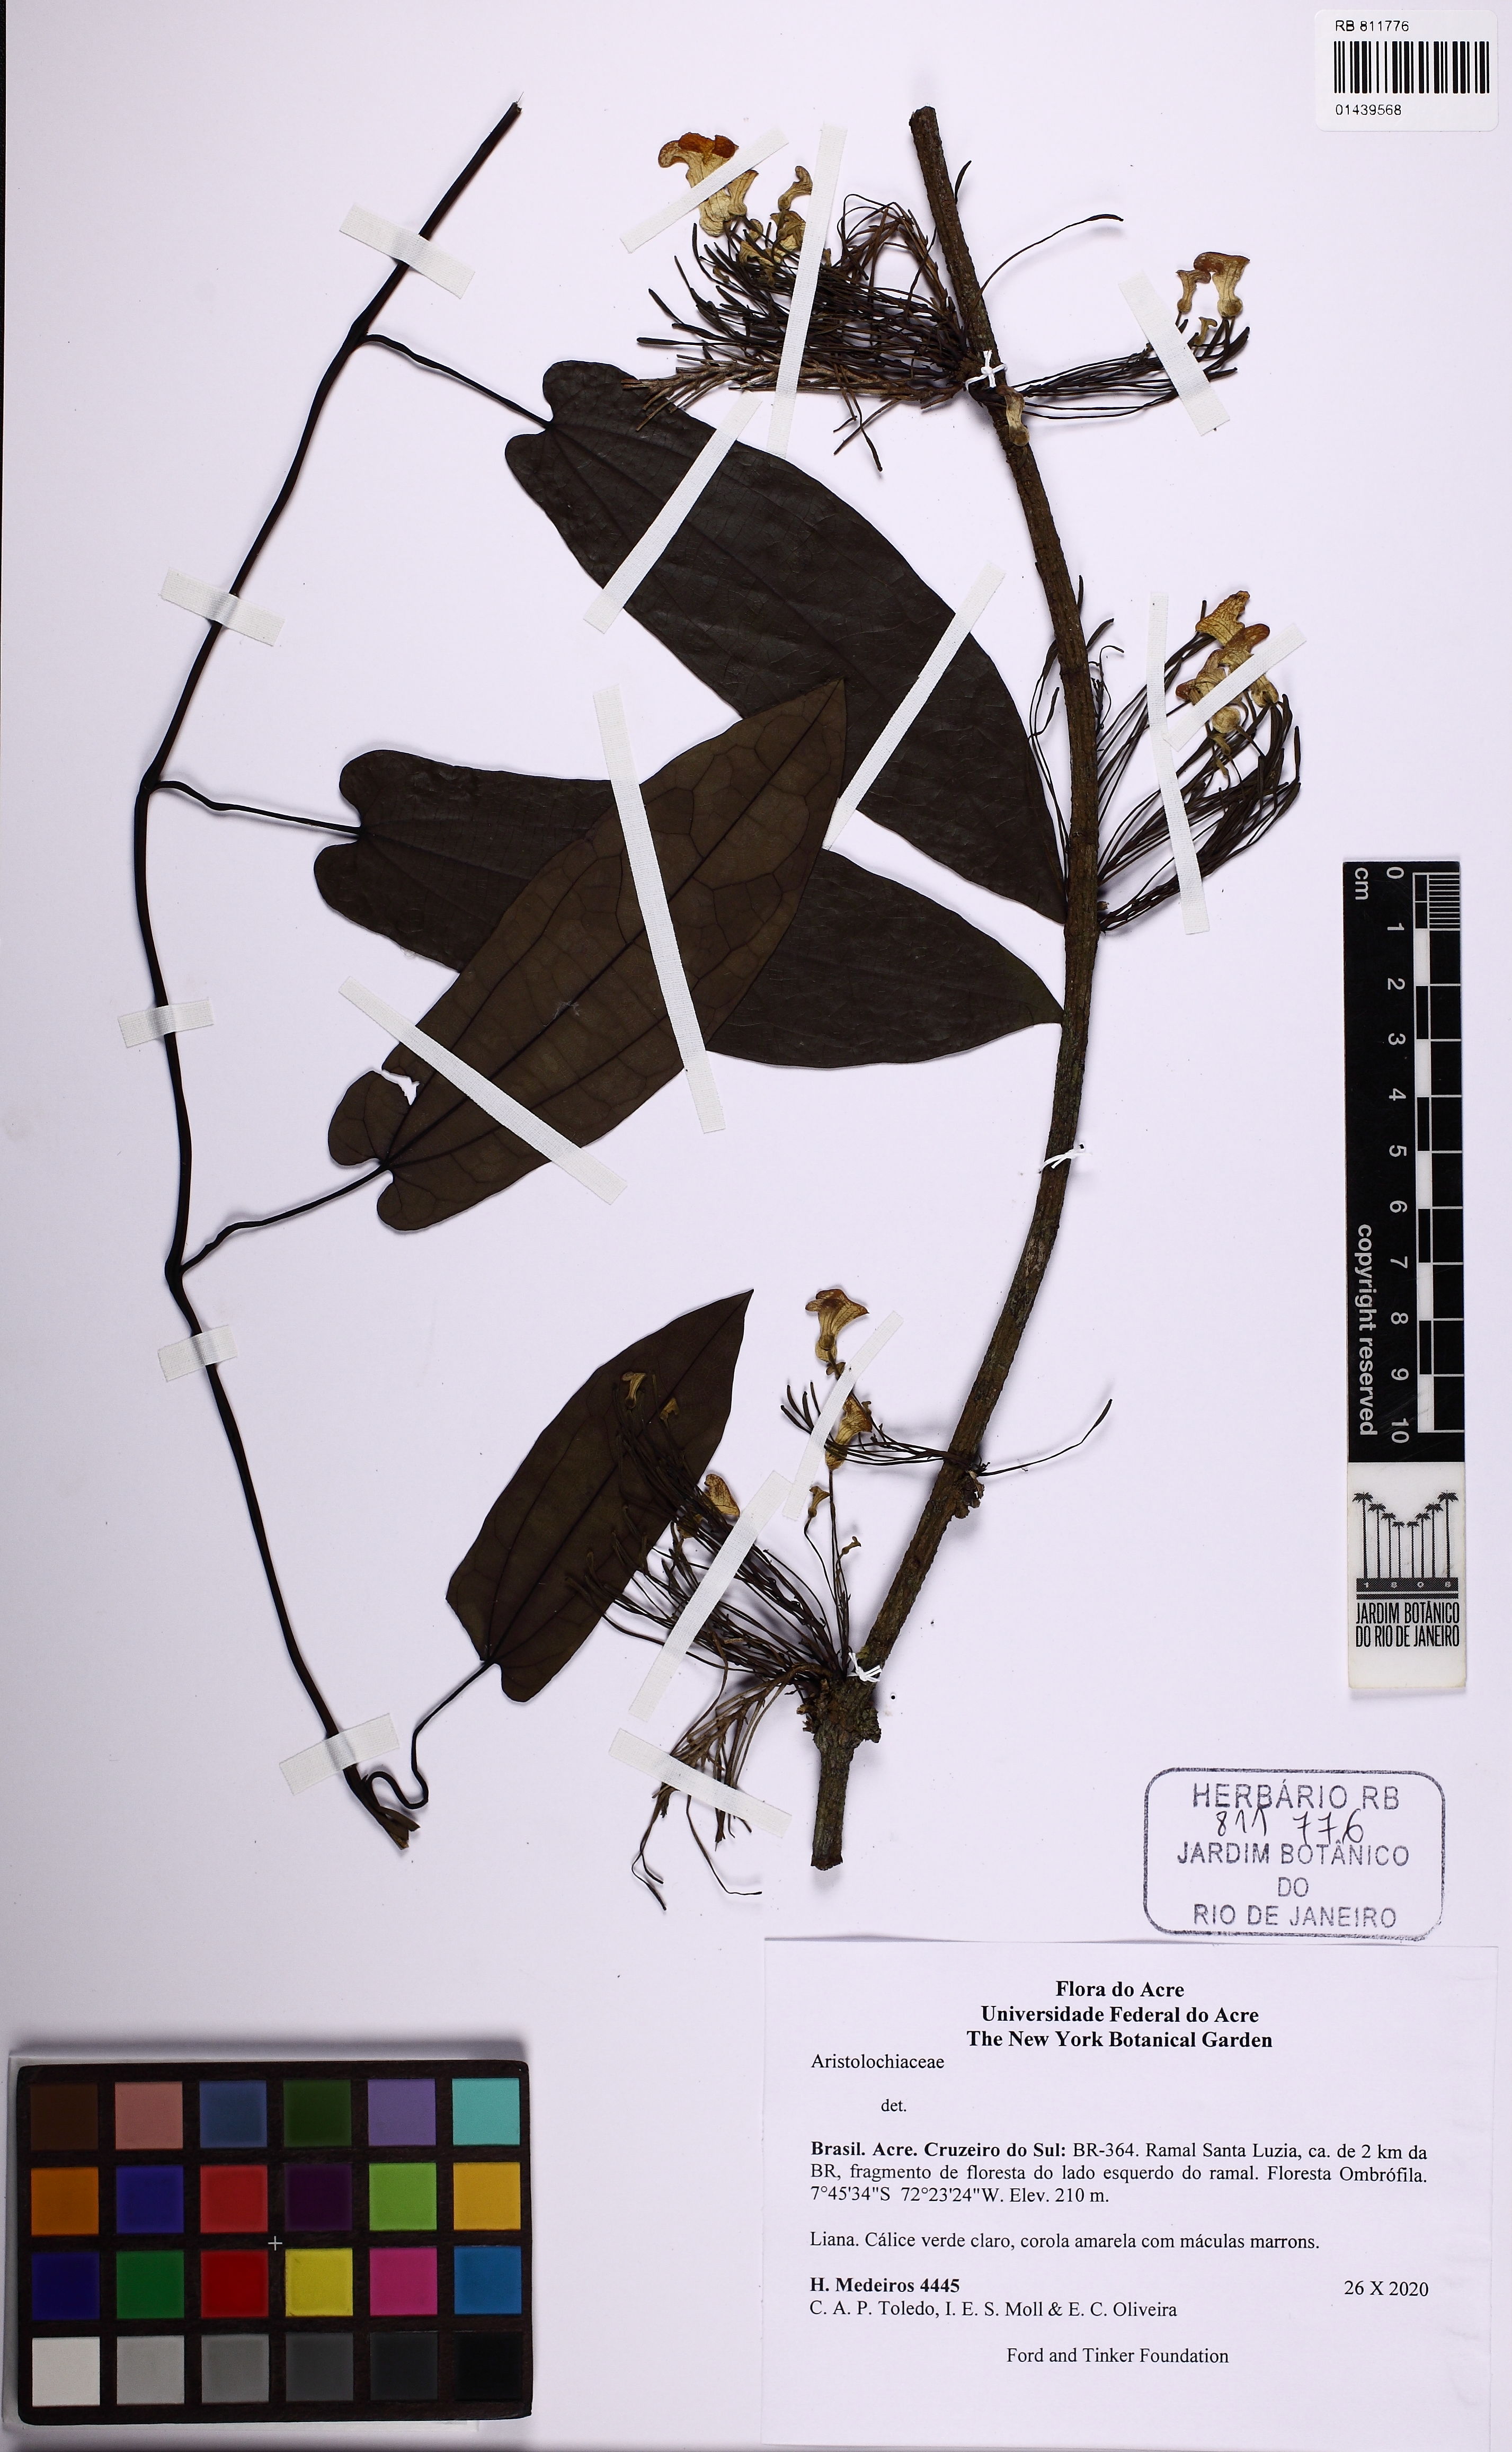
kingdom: Plantae
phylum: Tracheophyta
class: Magnoliopsida
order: Piperales
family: Aristolochiaceae
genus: Aristolochia
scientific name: Aristolochia iquitensis
